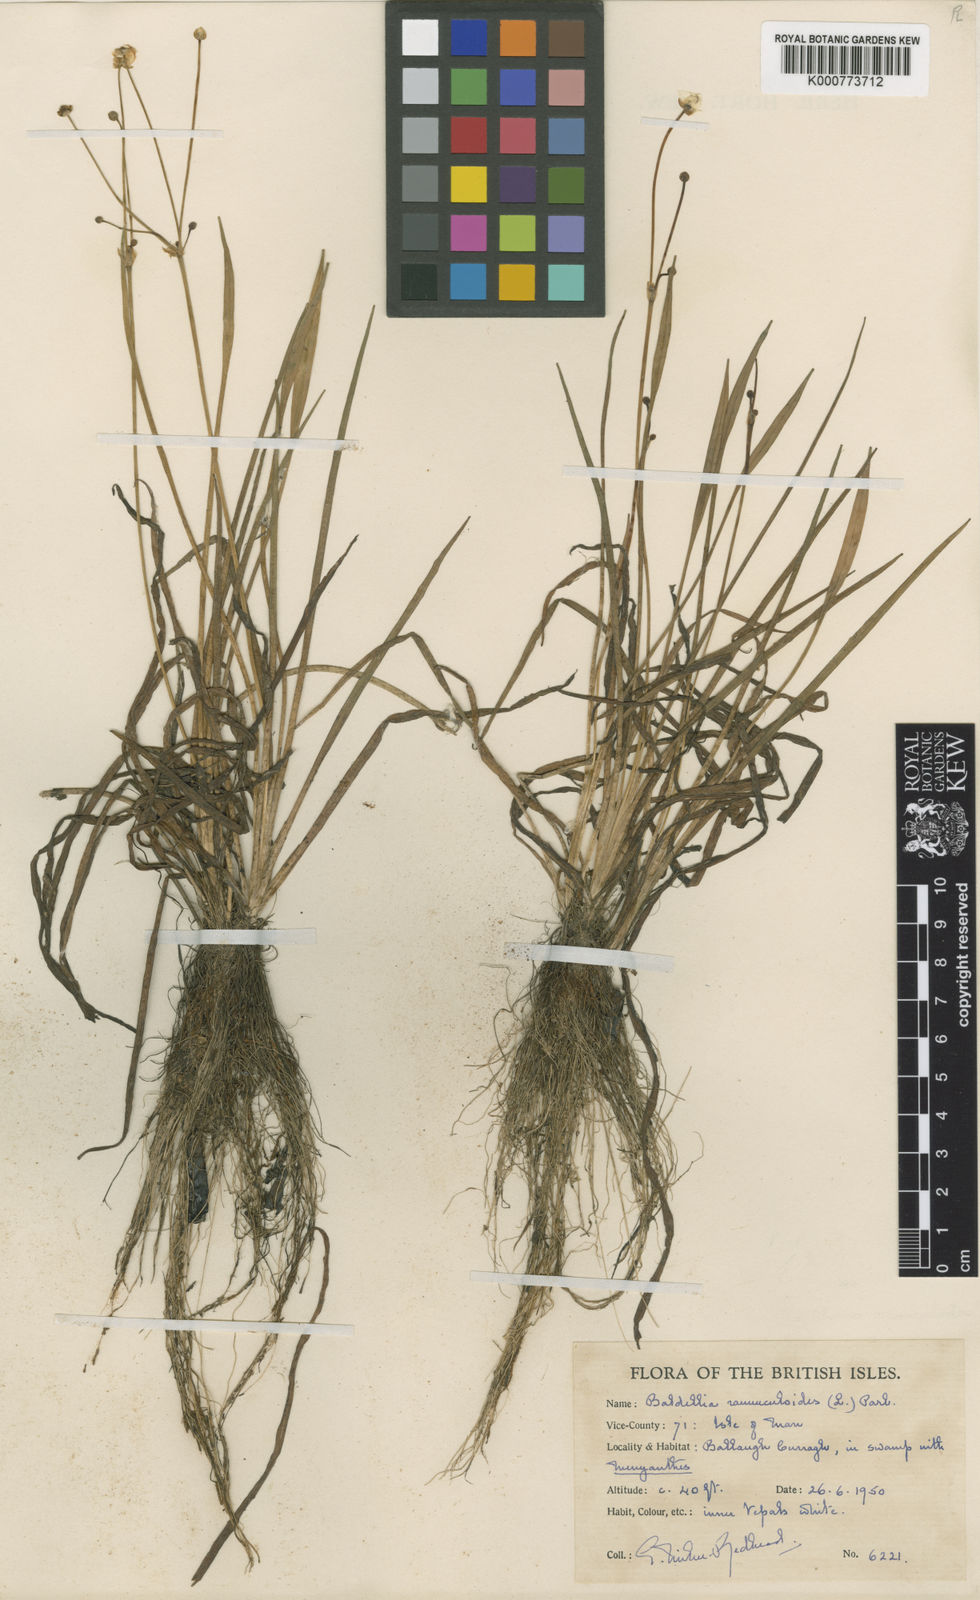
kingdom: Plantae
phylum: Tracheophyta
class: Liliopsida
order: Alismatales
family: Alismataceae
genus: Baldellia
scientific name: Baldellia ranunculoides
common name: Lesser water-plantain
